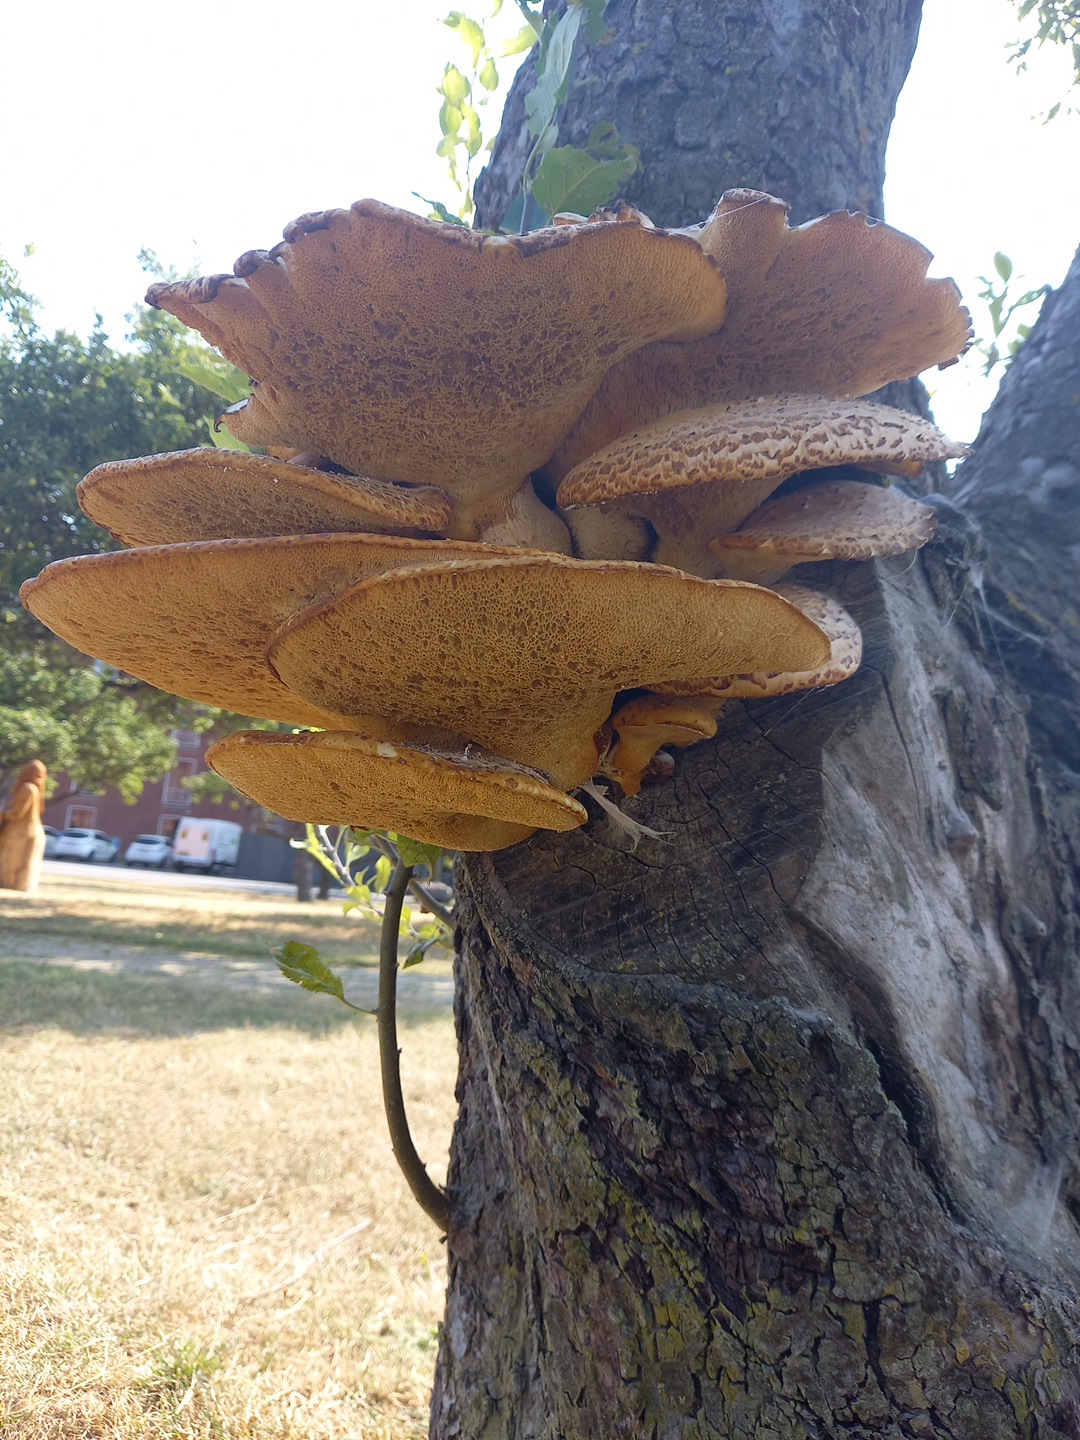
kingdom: Fungi
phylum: Basidiomycota
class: Agaricomycetes
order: Polyporales
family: Polyporaceae
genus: Cerioporus
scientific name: Cerioporus squamosus
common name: skællet stilkporesvamp
